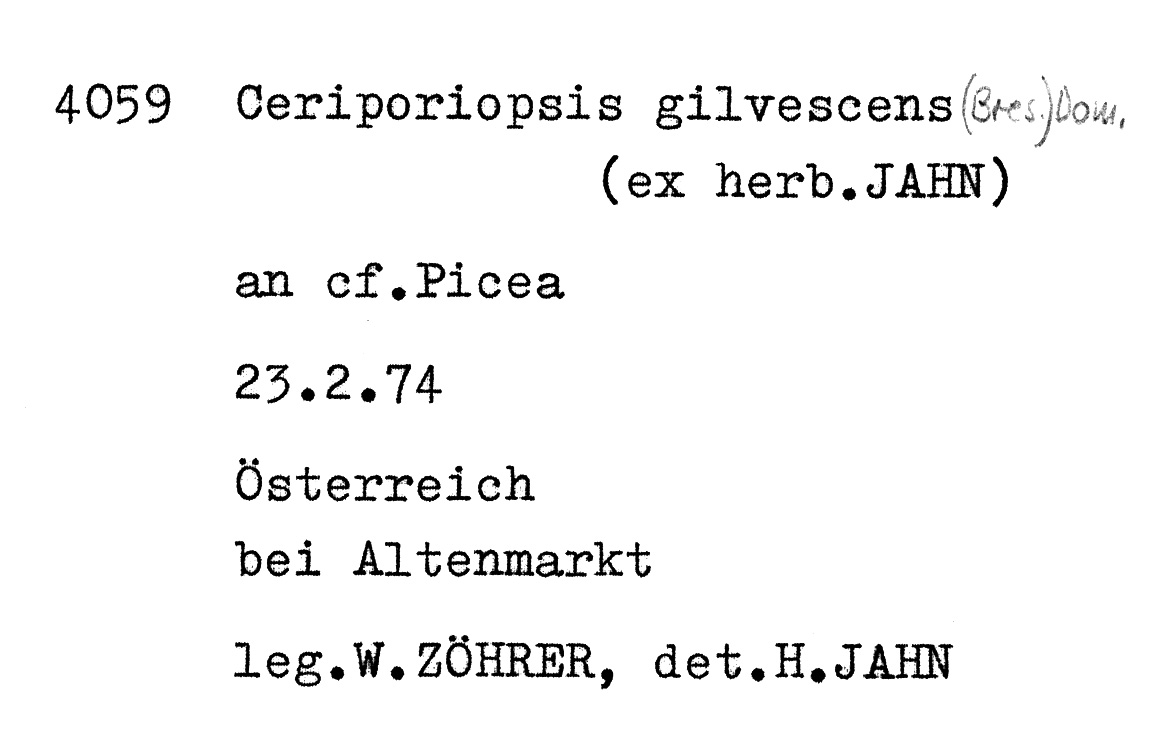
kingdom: Fungi
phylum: Basidiomycota
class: Agaricomycetes
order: Polyporales
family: Meruliaceae
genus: Mycoacia
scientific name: Mycoacia gilvescens
